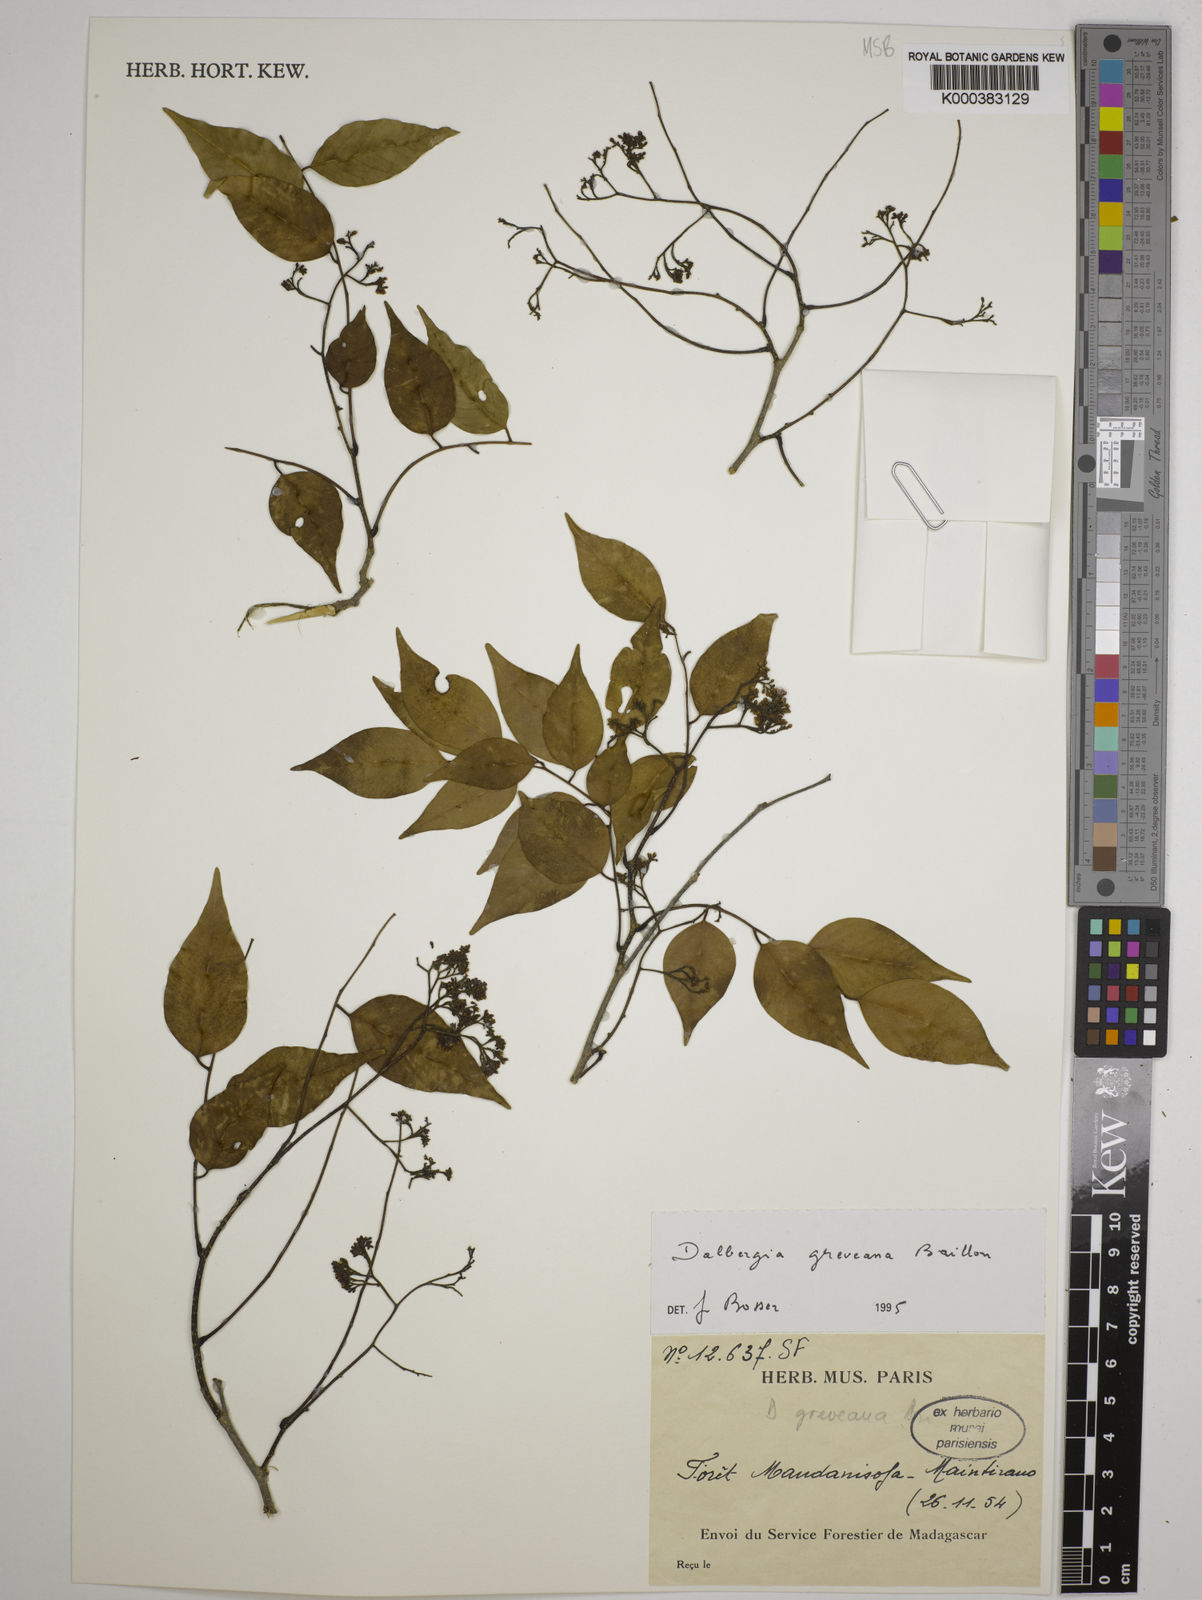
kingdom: Plantae
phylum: Tracheophyta
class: Magnoliopsida
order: Fabales
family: Fabaceae
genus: Dalbergia
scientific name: Dalbergia greveana
